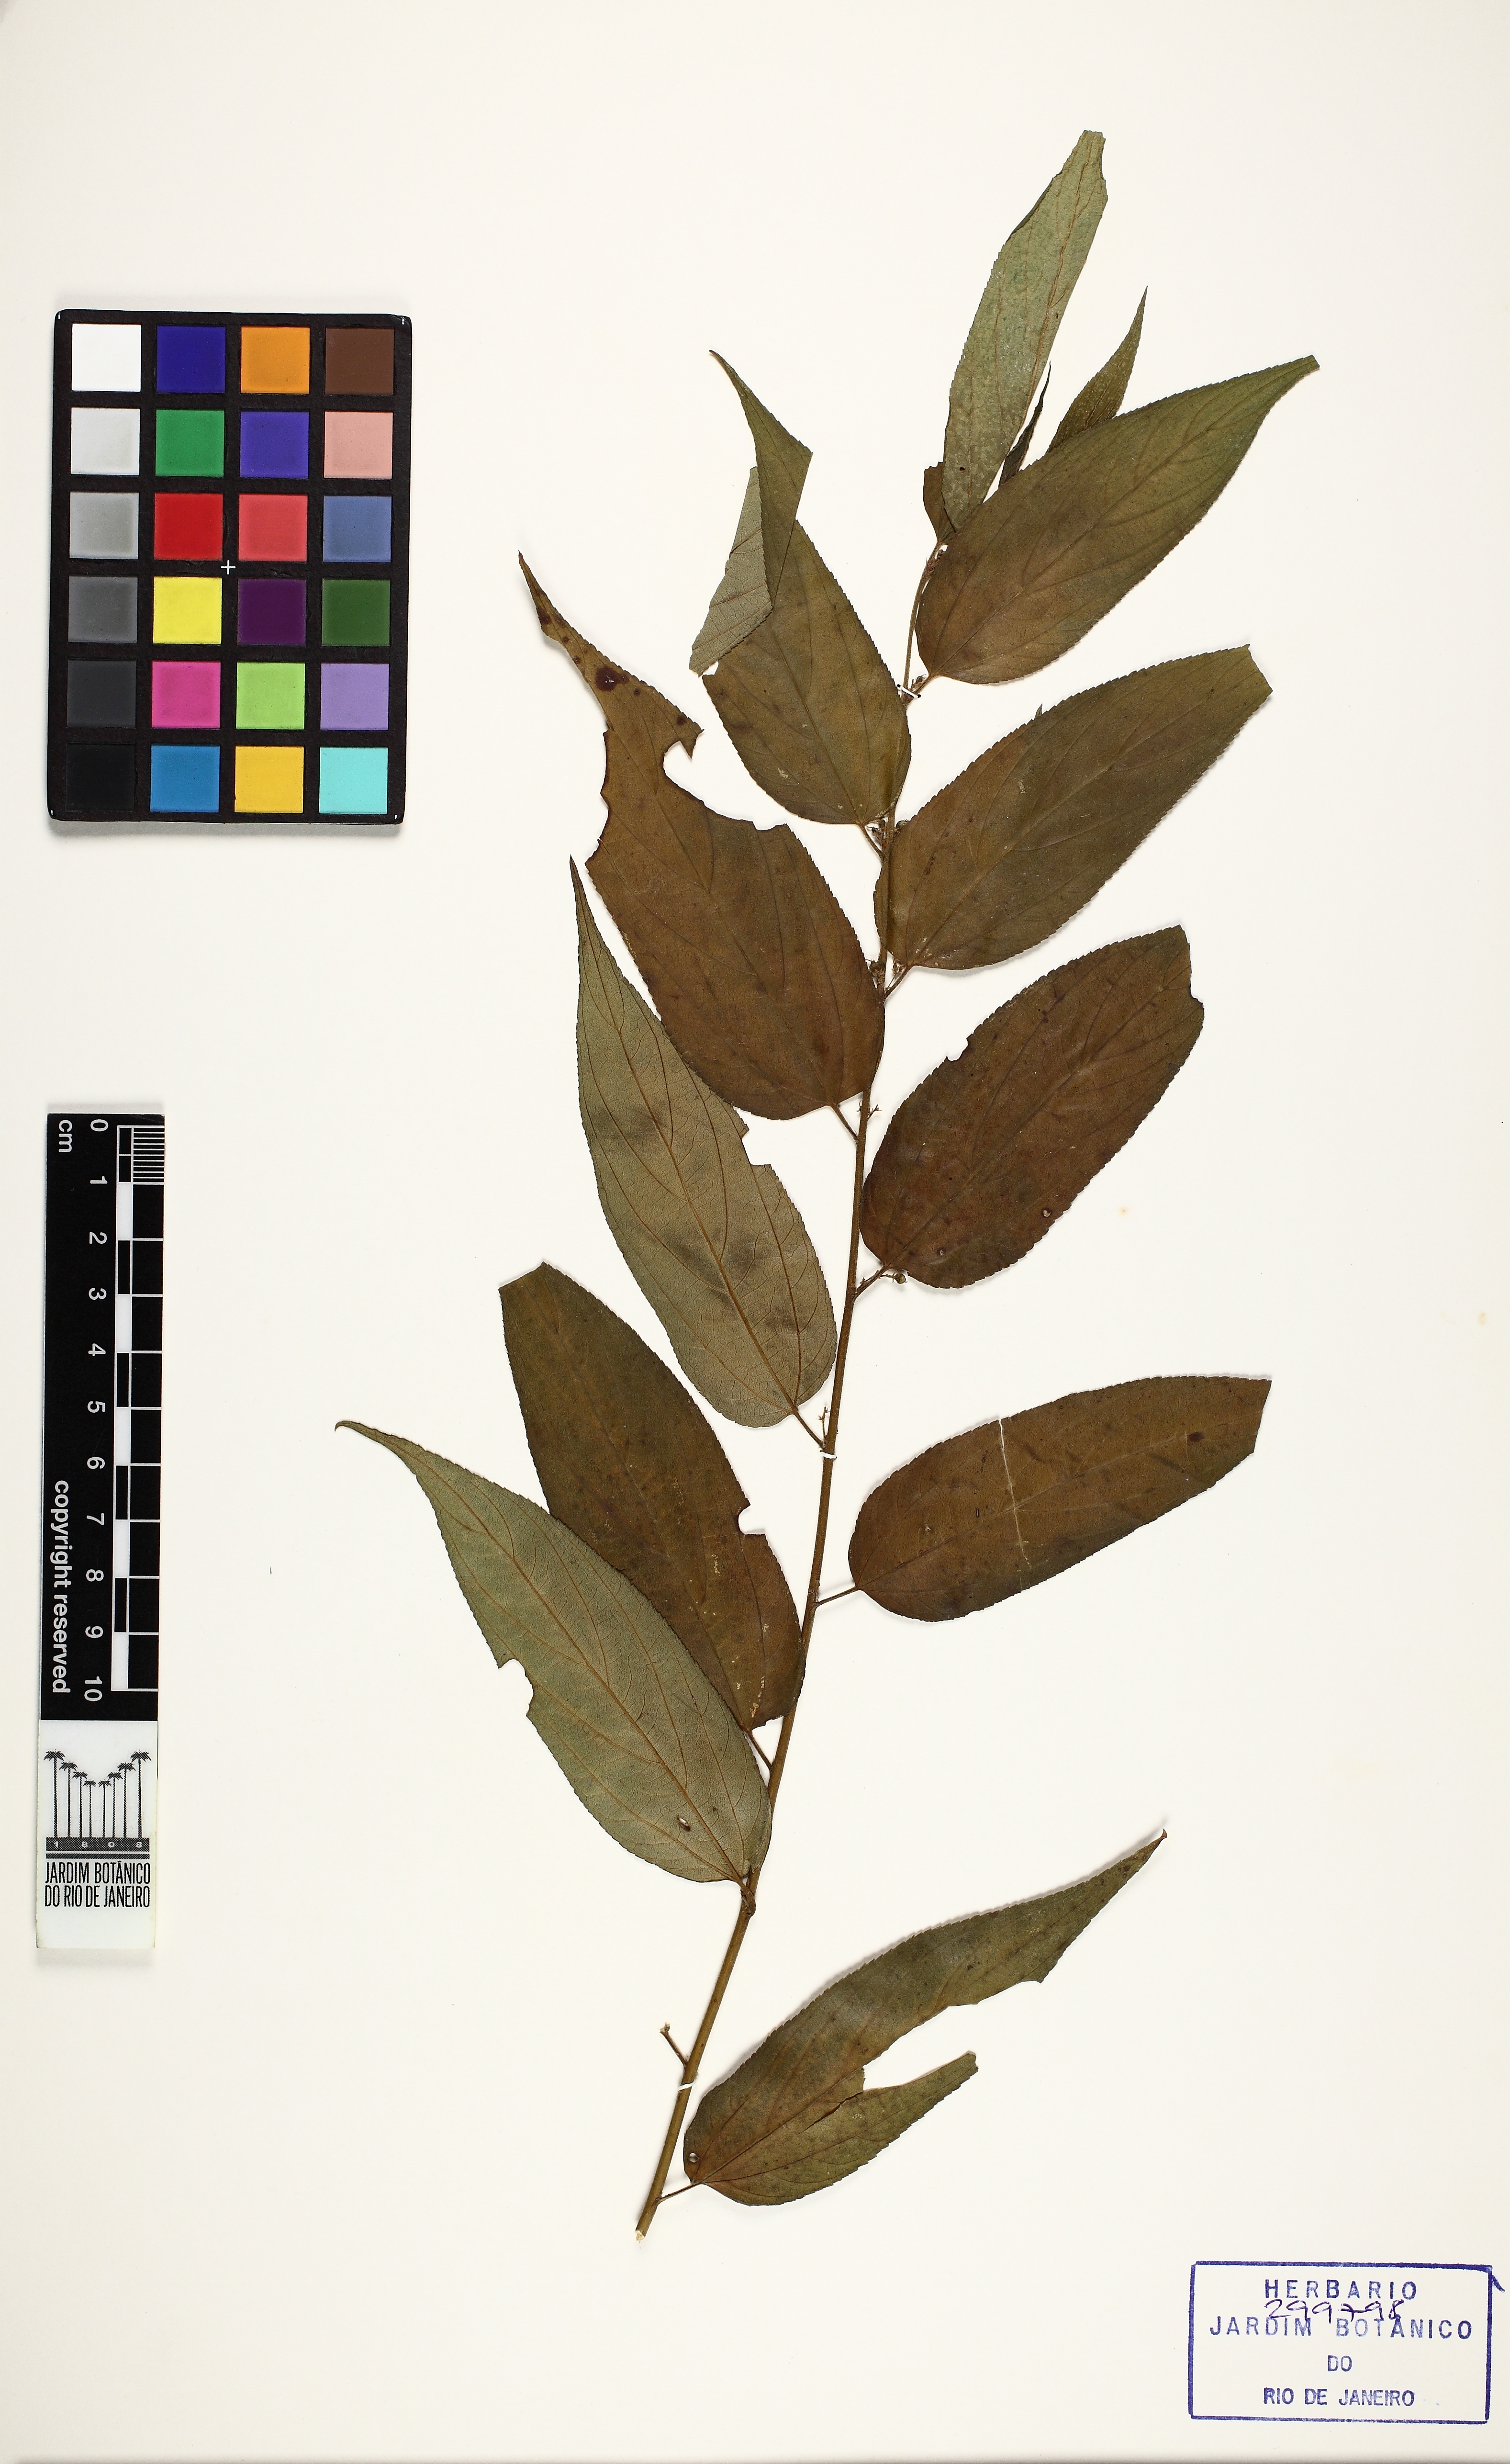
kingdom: Plantae
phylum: Tracheophyta
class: Magnoliopsida
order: Rosales
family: Cannabaceae
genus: Trema
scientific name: Trema micranthum
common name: Jamaican nettletree
